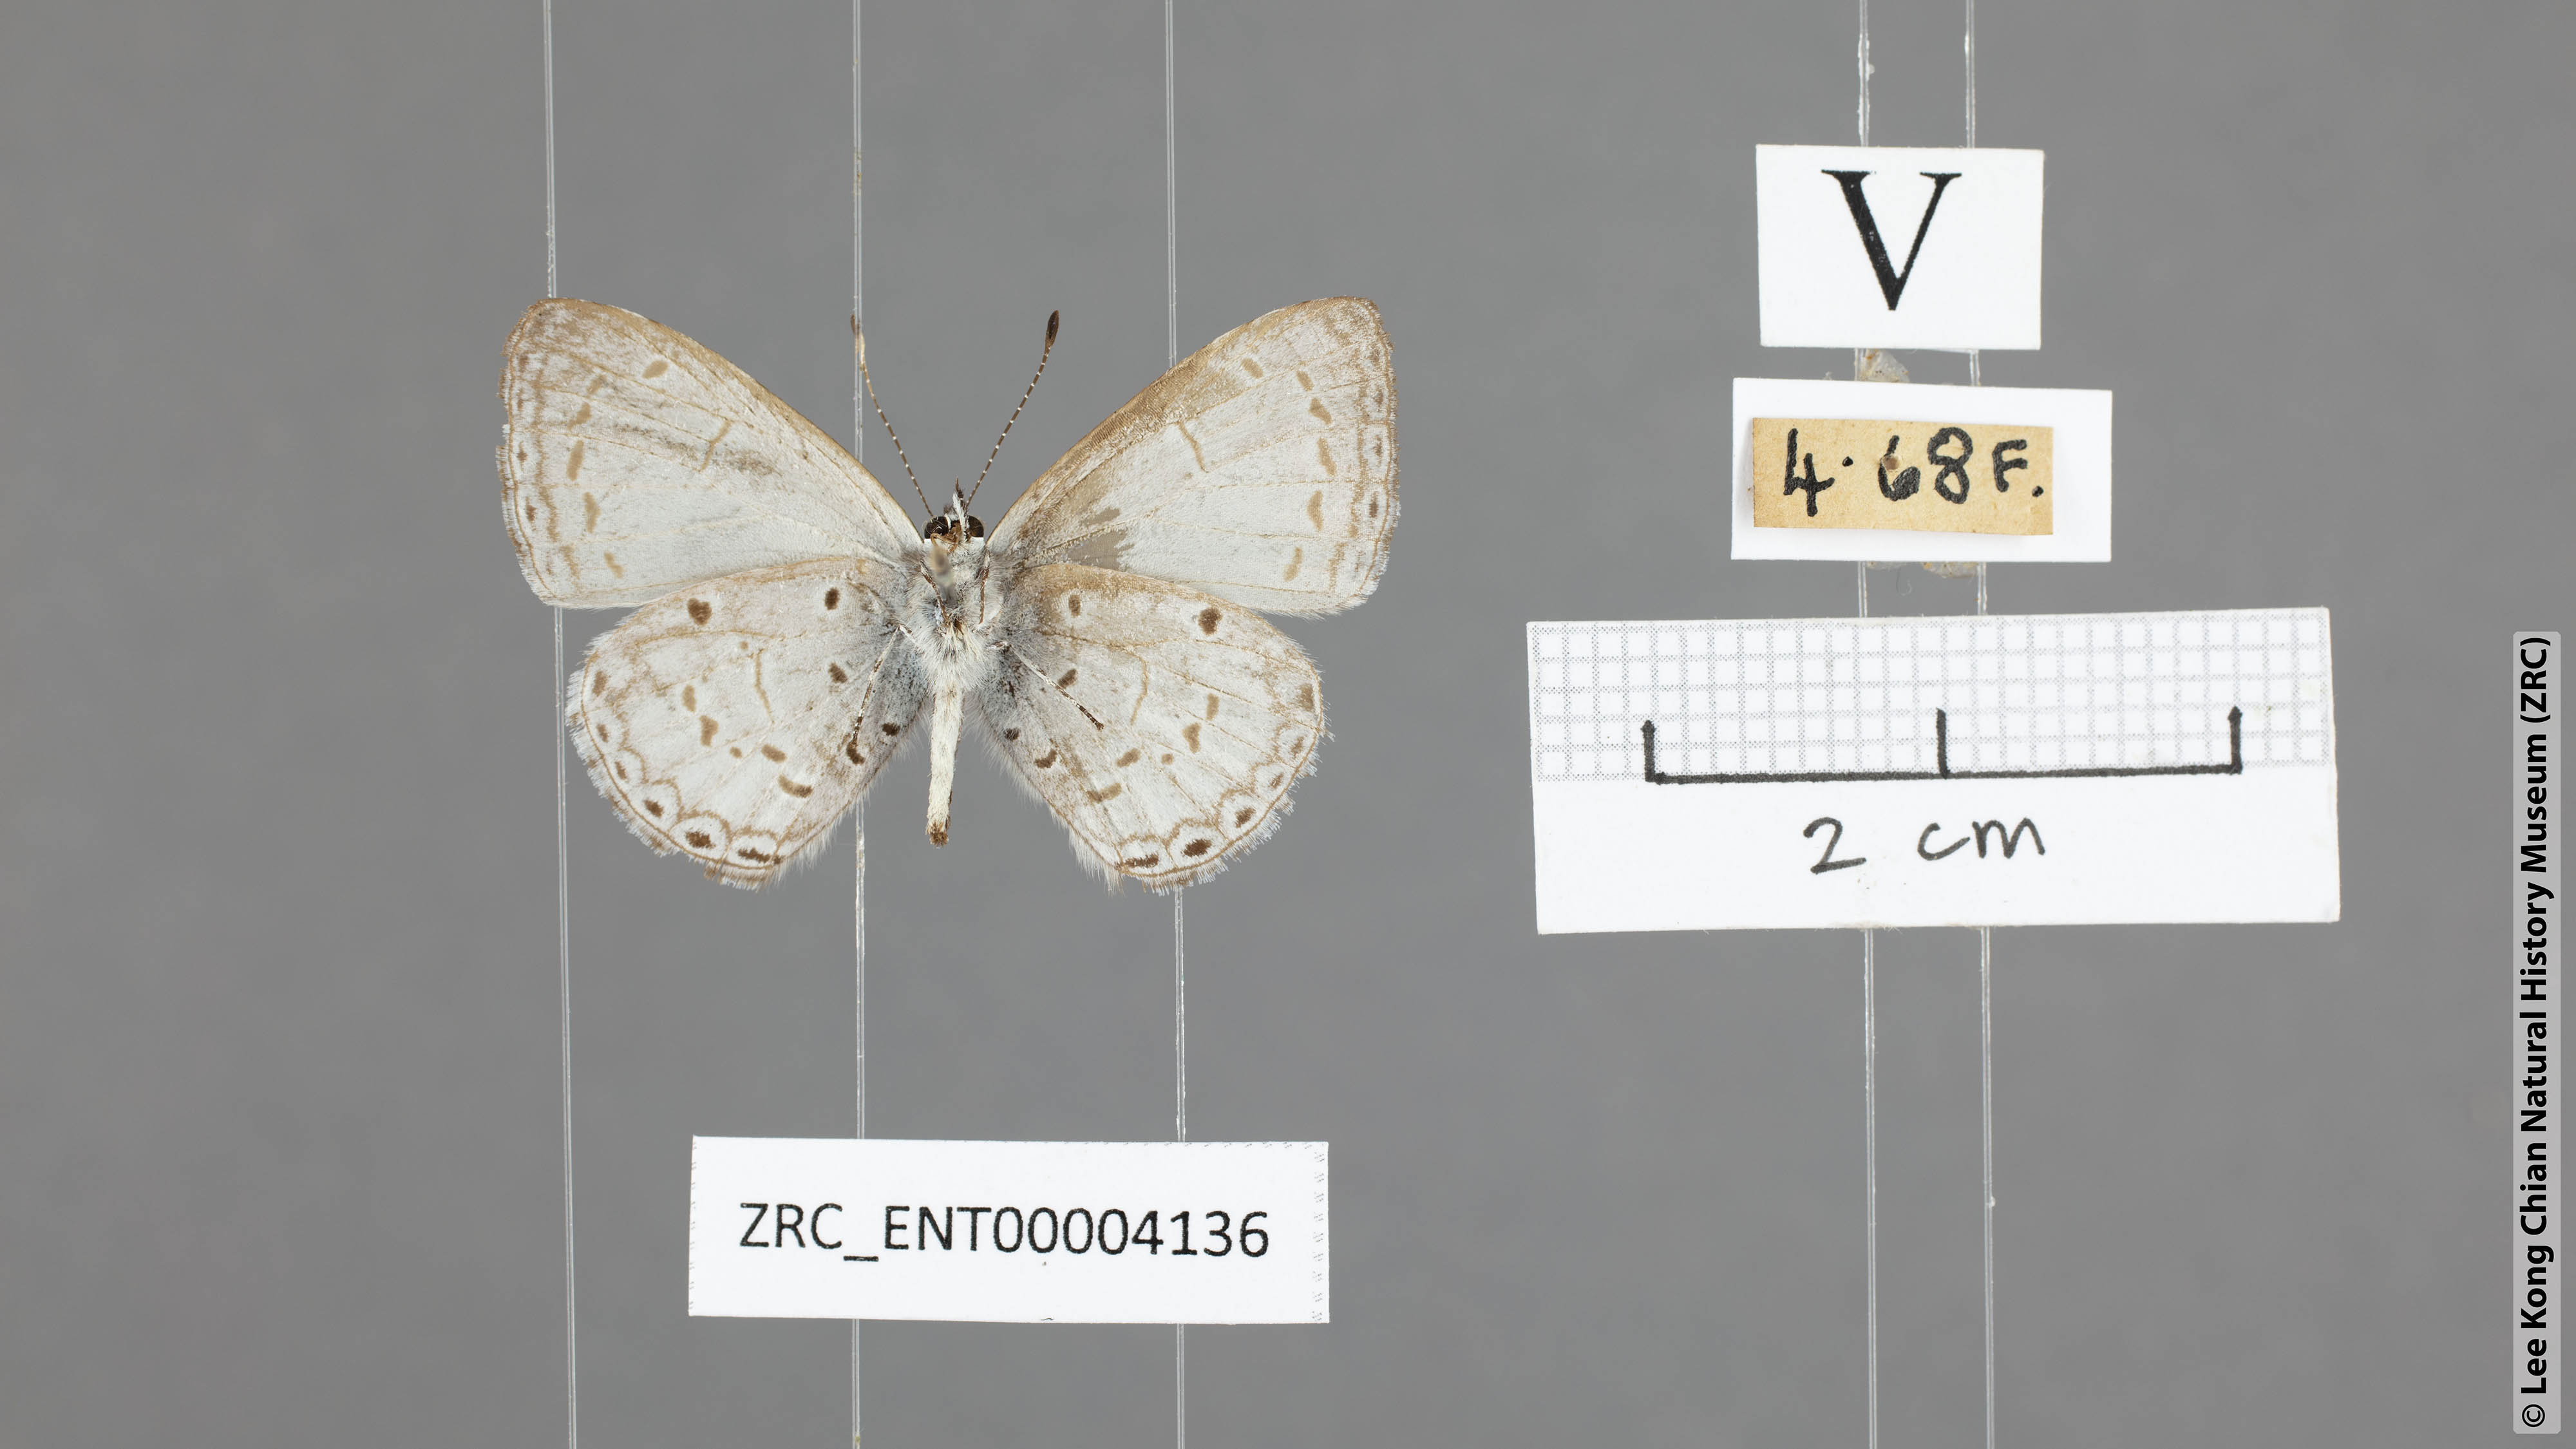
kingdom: Animalia
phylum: Arthropoda
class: Insecta
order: Lepidoptera
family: Lycaenidae
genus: Celastrina
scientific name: Celastrina lavendularis
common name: Plain hedge blue
